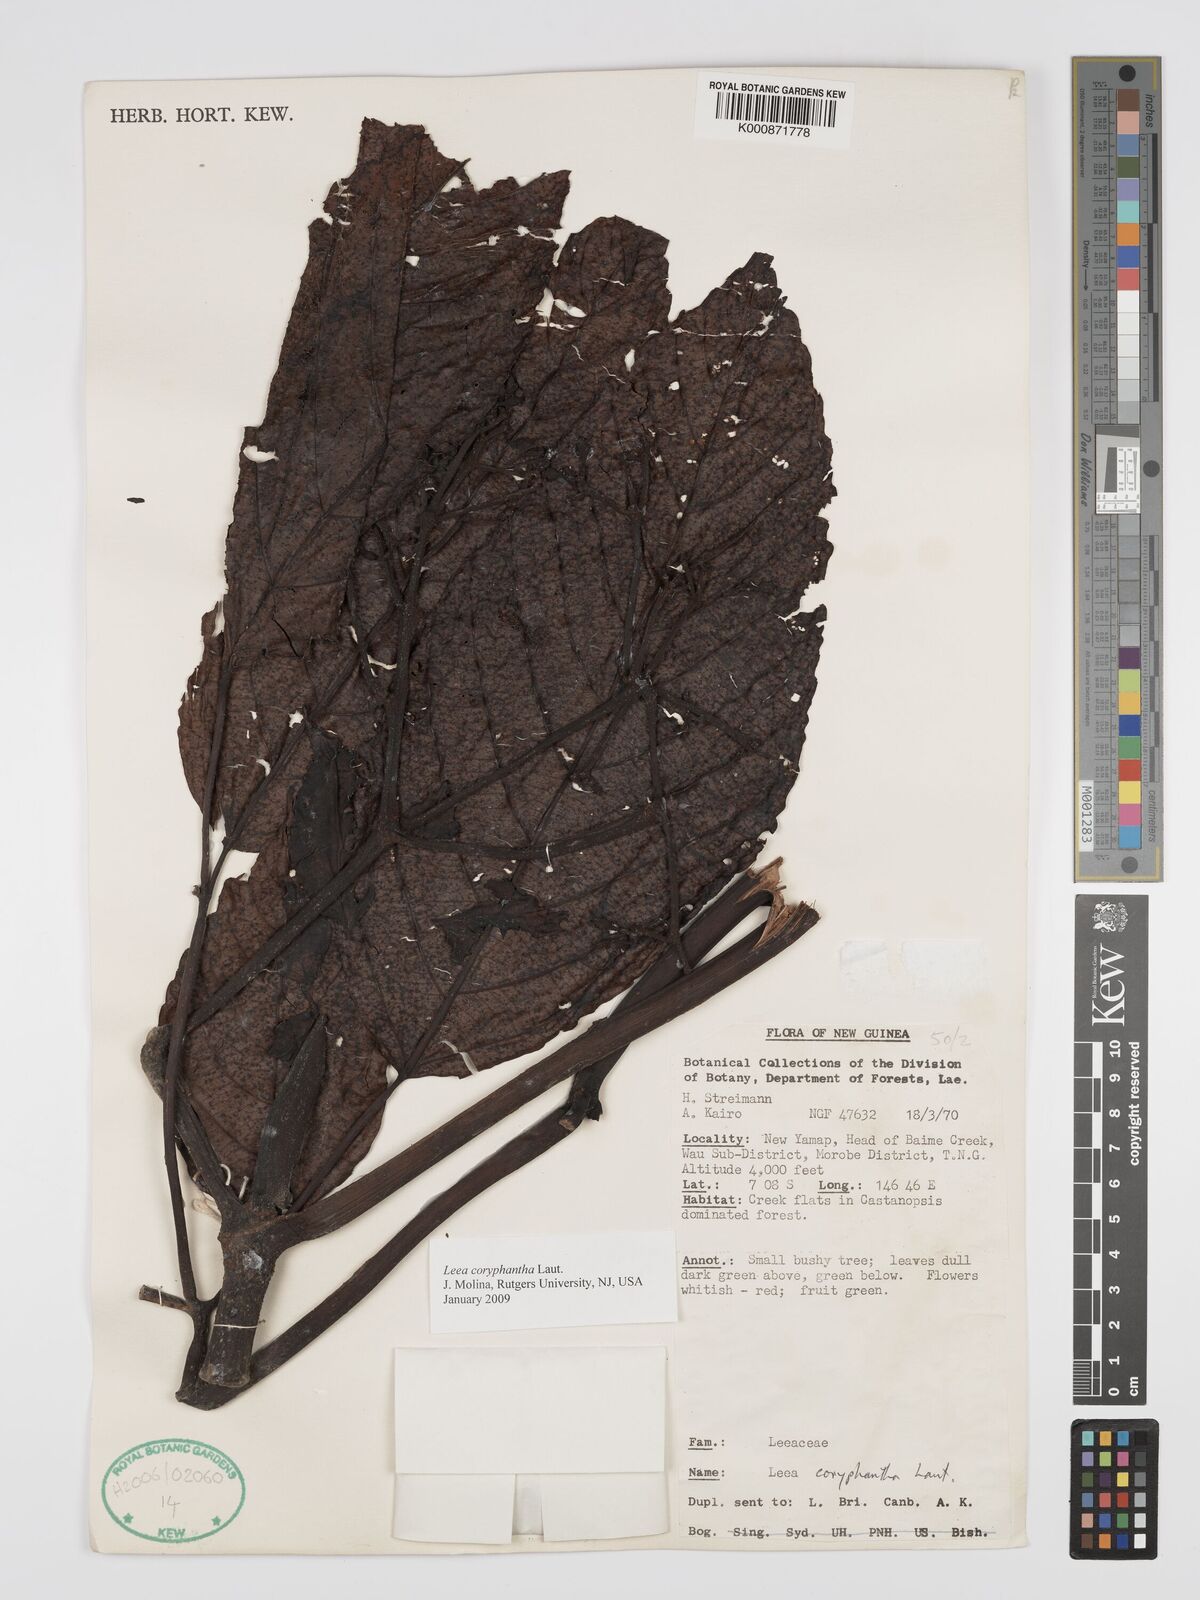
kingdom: Plantae
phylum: Tracheophyta
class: Magnoliopsida
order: Vitales
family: Vitaceae
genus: Leea
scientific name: Leea coryphantha
